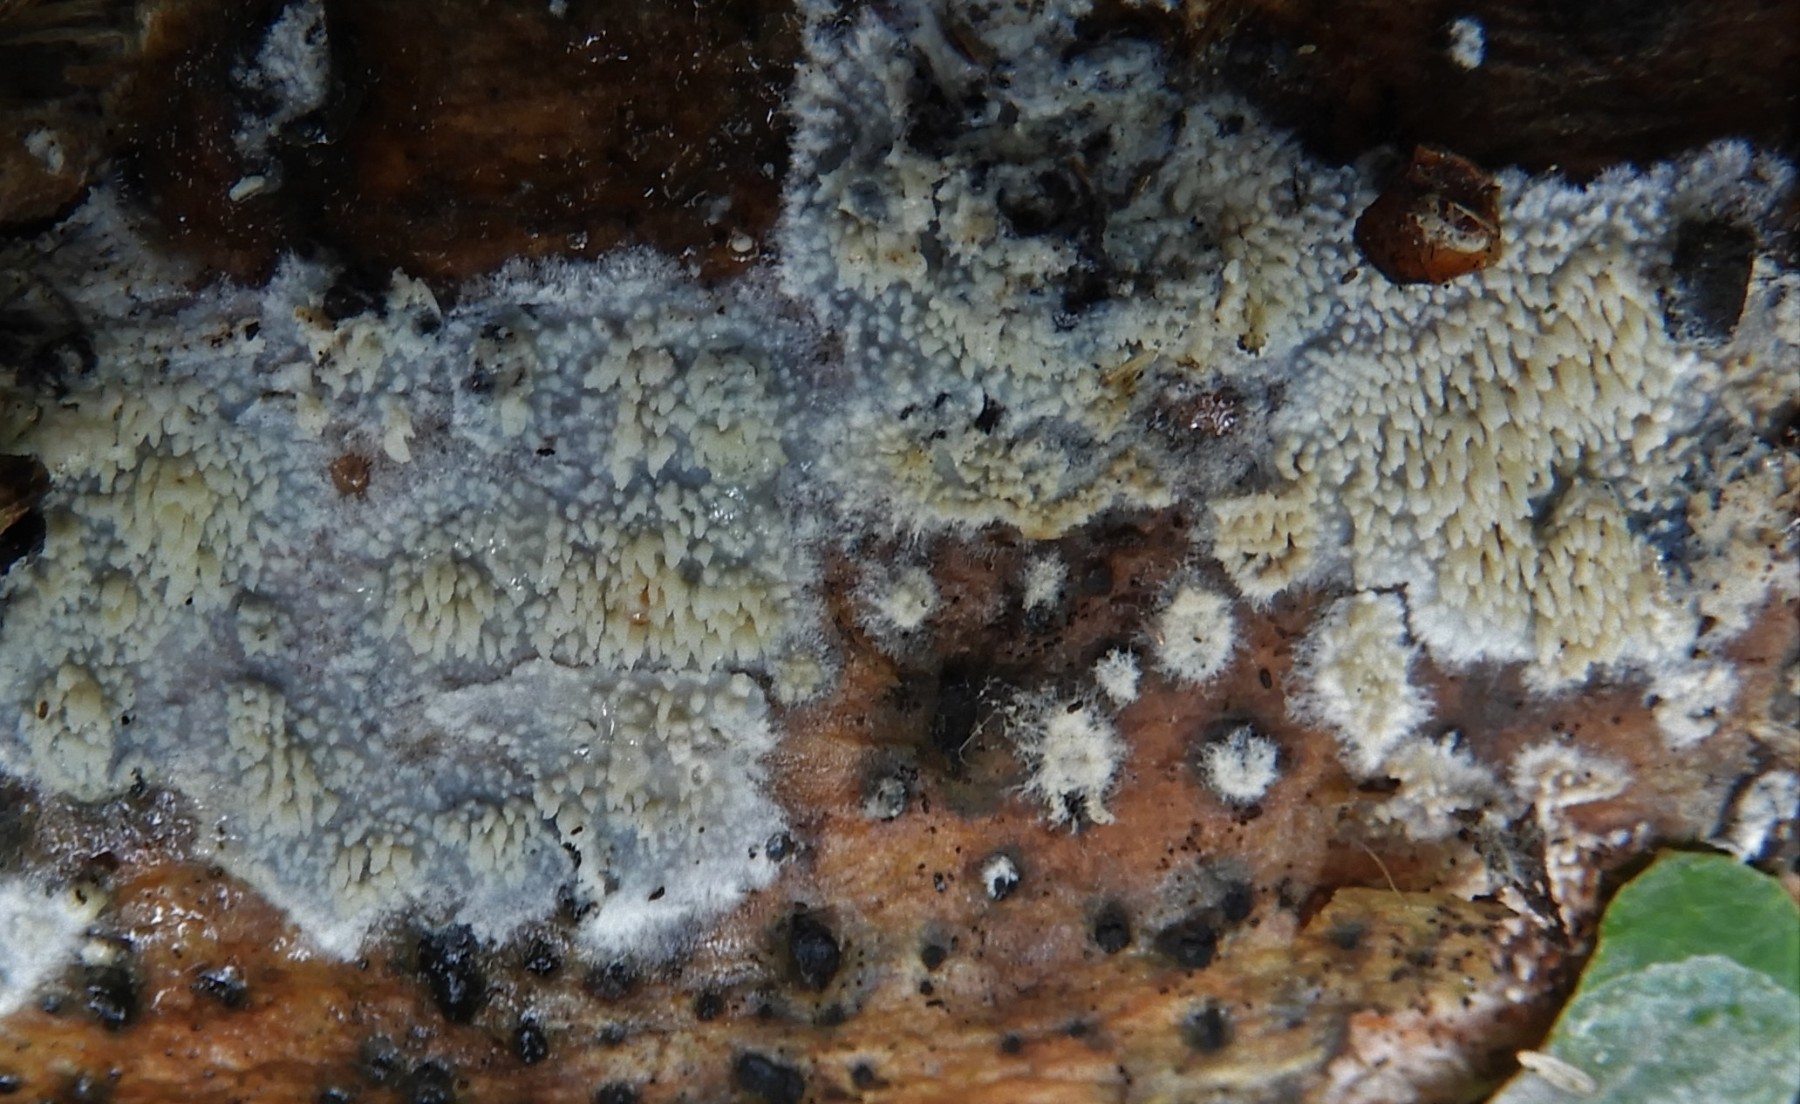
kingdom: Fungi
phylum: Basidiomycota
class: Agaricomycetes
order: Corticiales
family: Corticiaceae
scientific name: Corticiaceae
